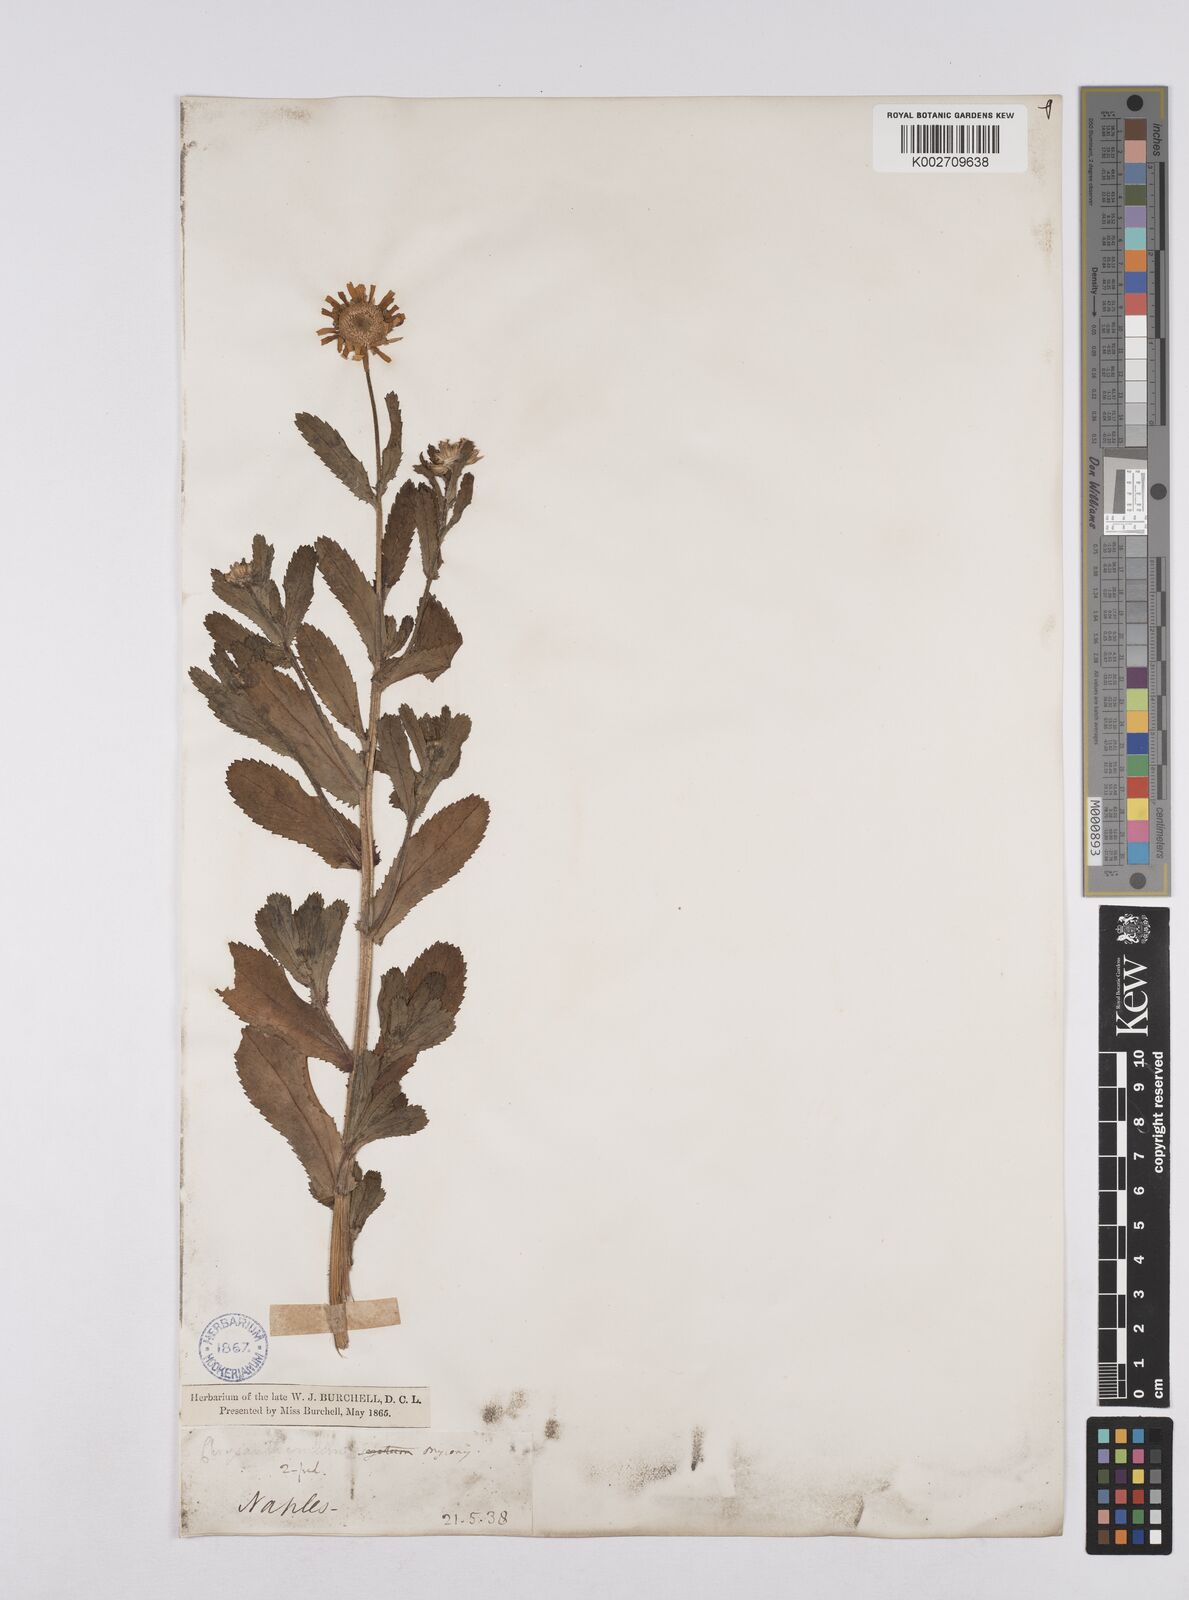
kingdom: Plantae
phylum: Tracheophyta
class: Magnoliopsida
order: Asterales
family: Asteraceae
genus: Coleostephus
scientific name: Coleostephus myconis
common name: Mediterranean marigold
